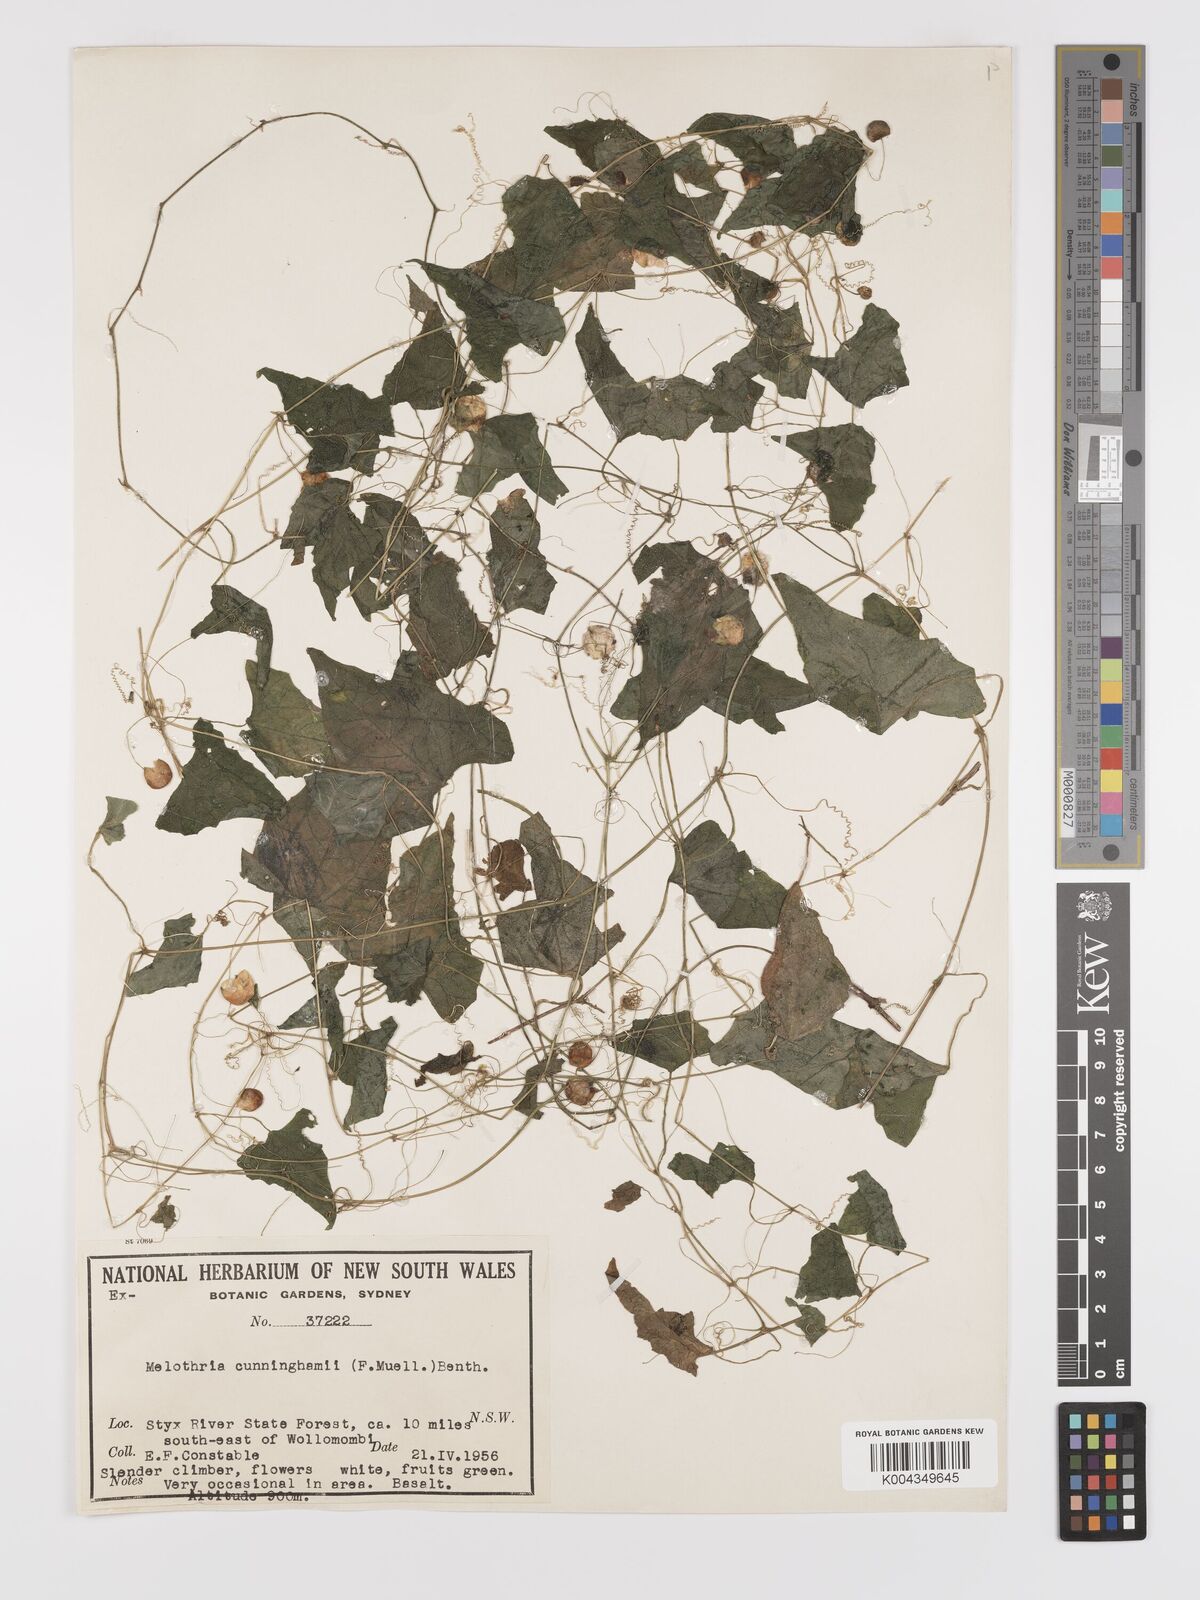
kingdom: Plantae
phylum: Tracheophyta
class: Magnoliopsida
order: Cucurbitales
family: Cucurbitaceae
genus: Zehneria
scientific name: Zehneria cunninghamii
